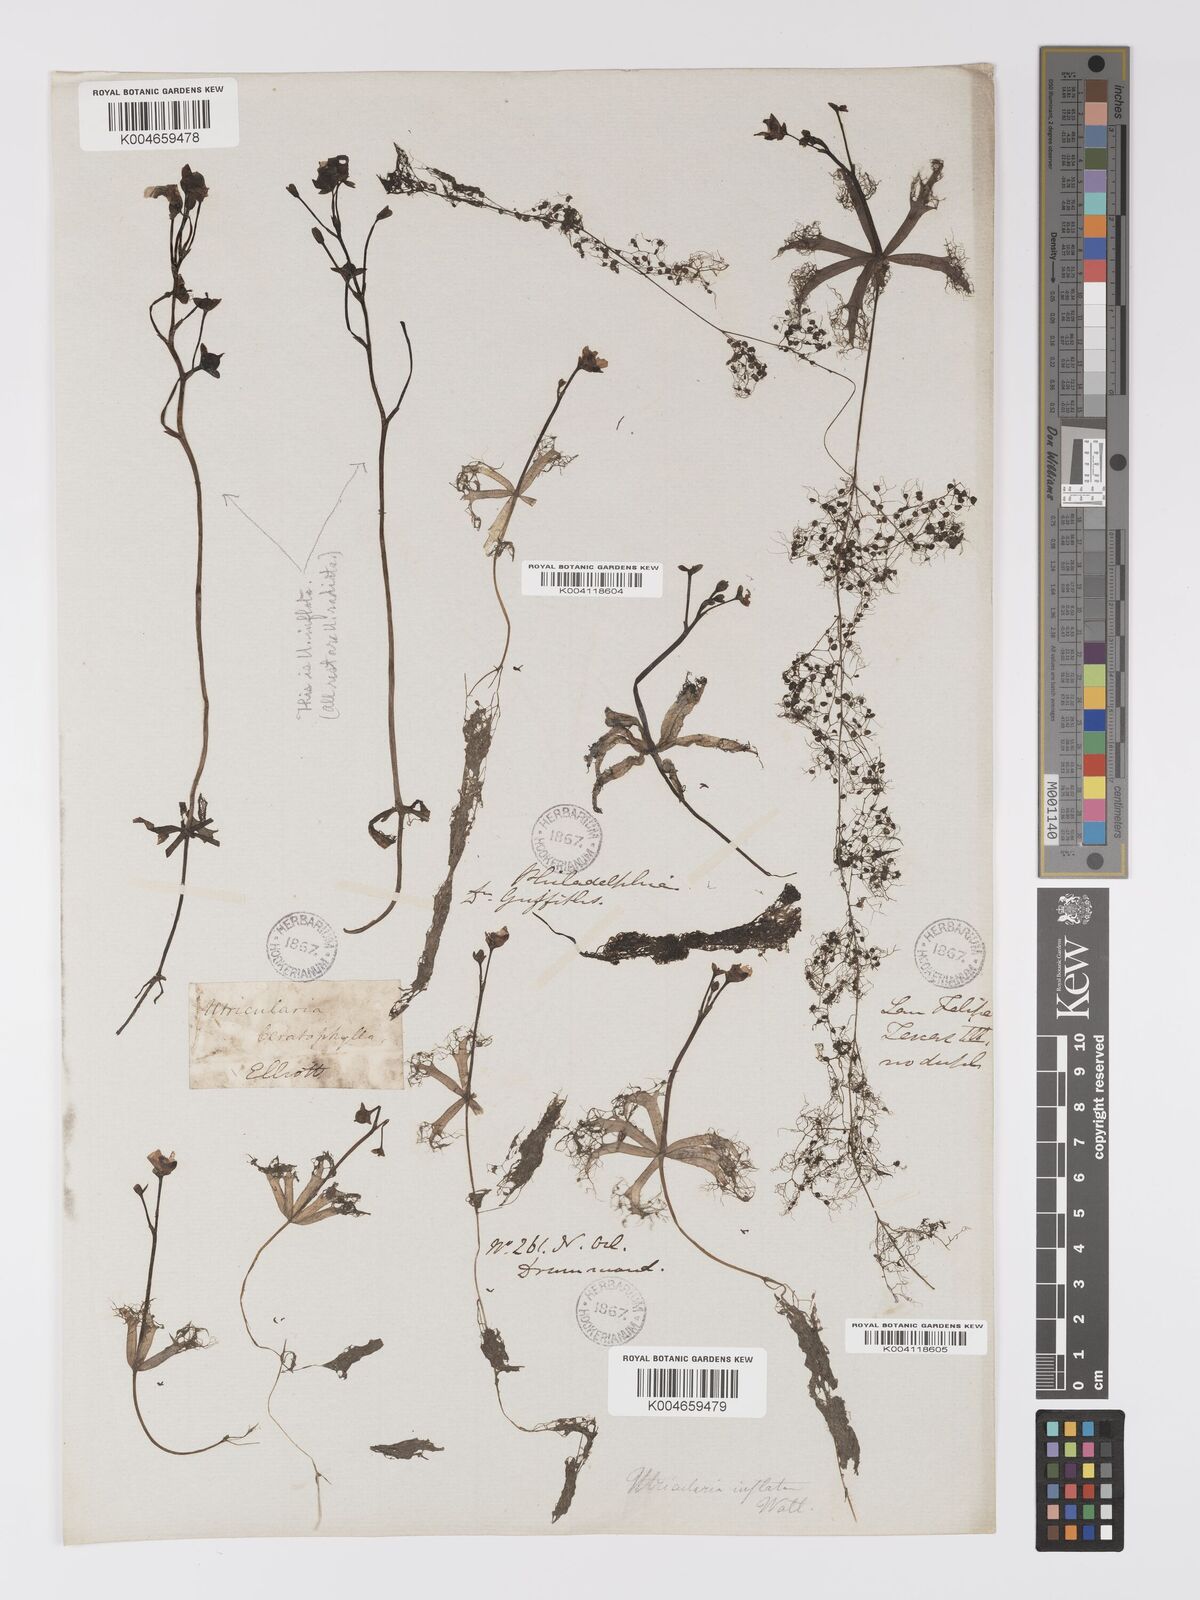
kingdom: Plantae
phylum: Tracheophyta
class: Magnoliopsida
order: Lamiales
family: Lentibulariaceae
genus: Utricularia
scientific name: Utricularia radiata
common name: Floating bladderwort
